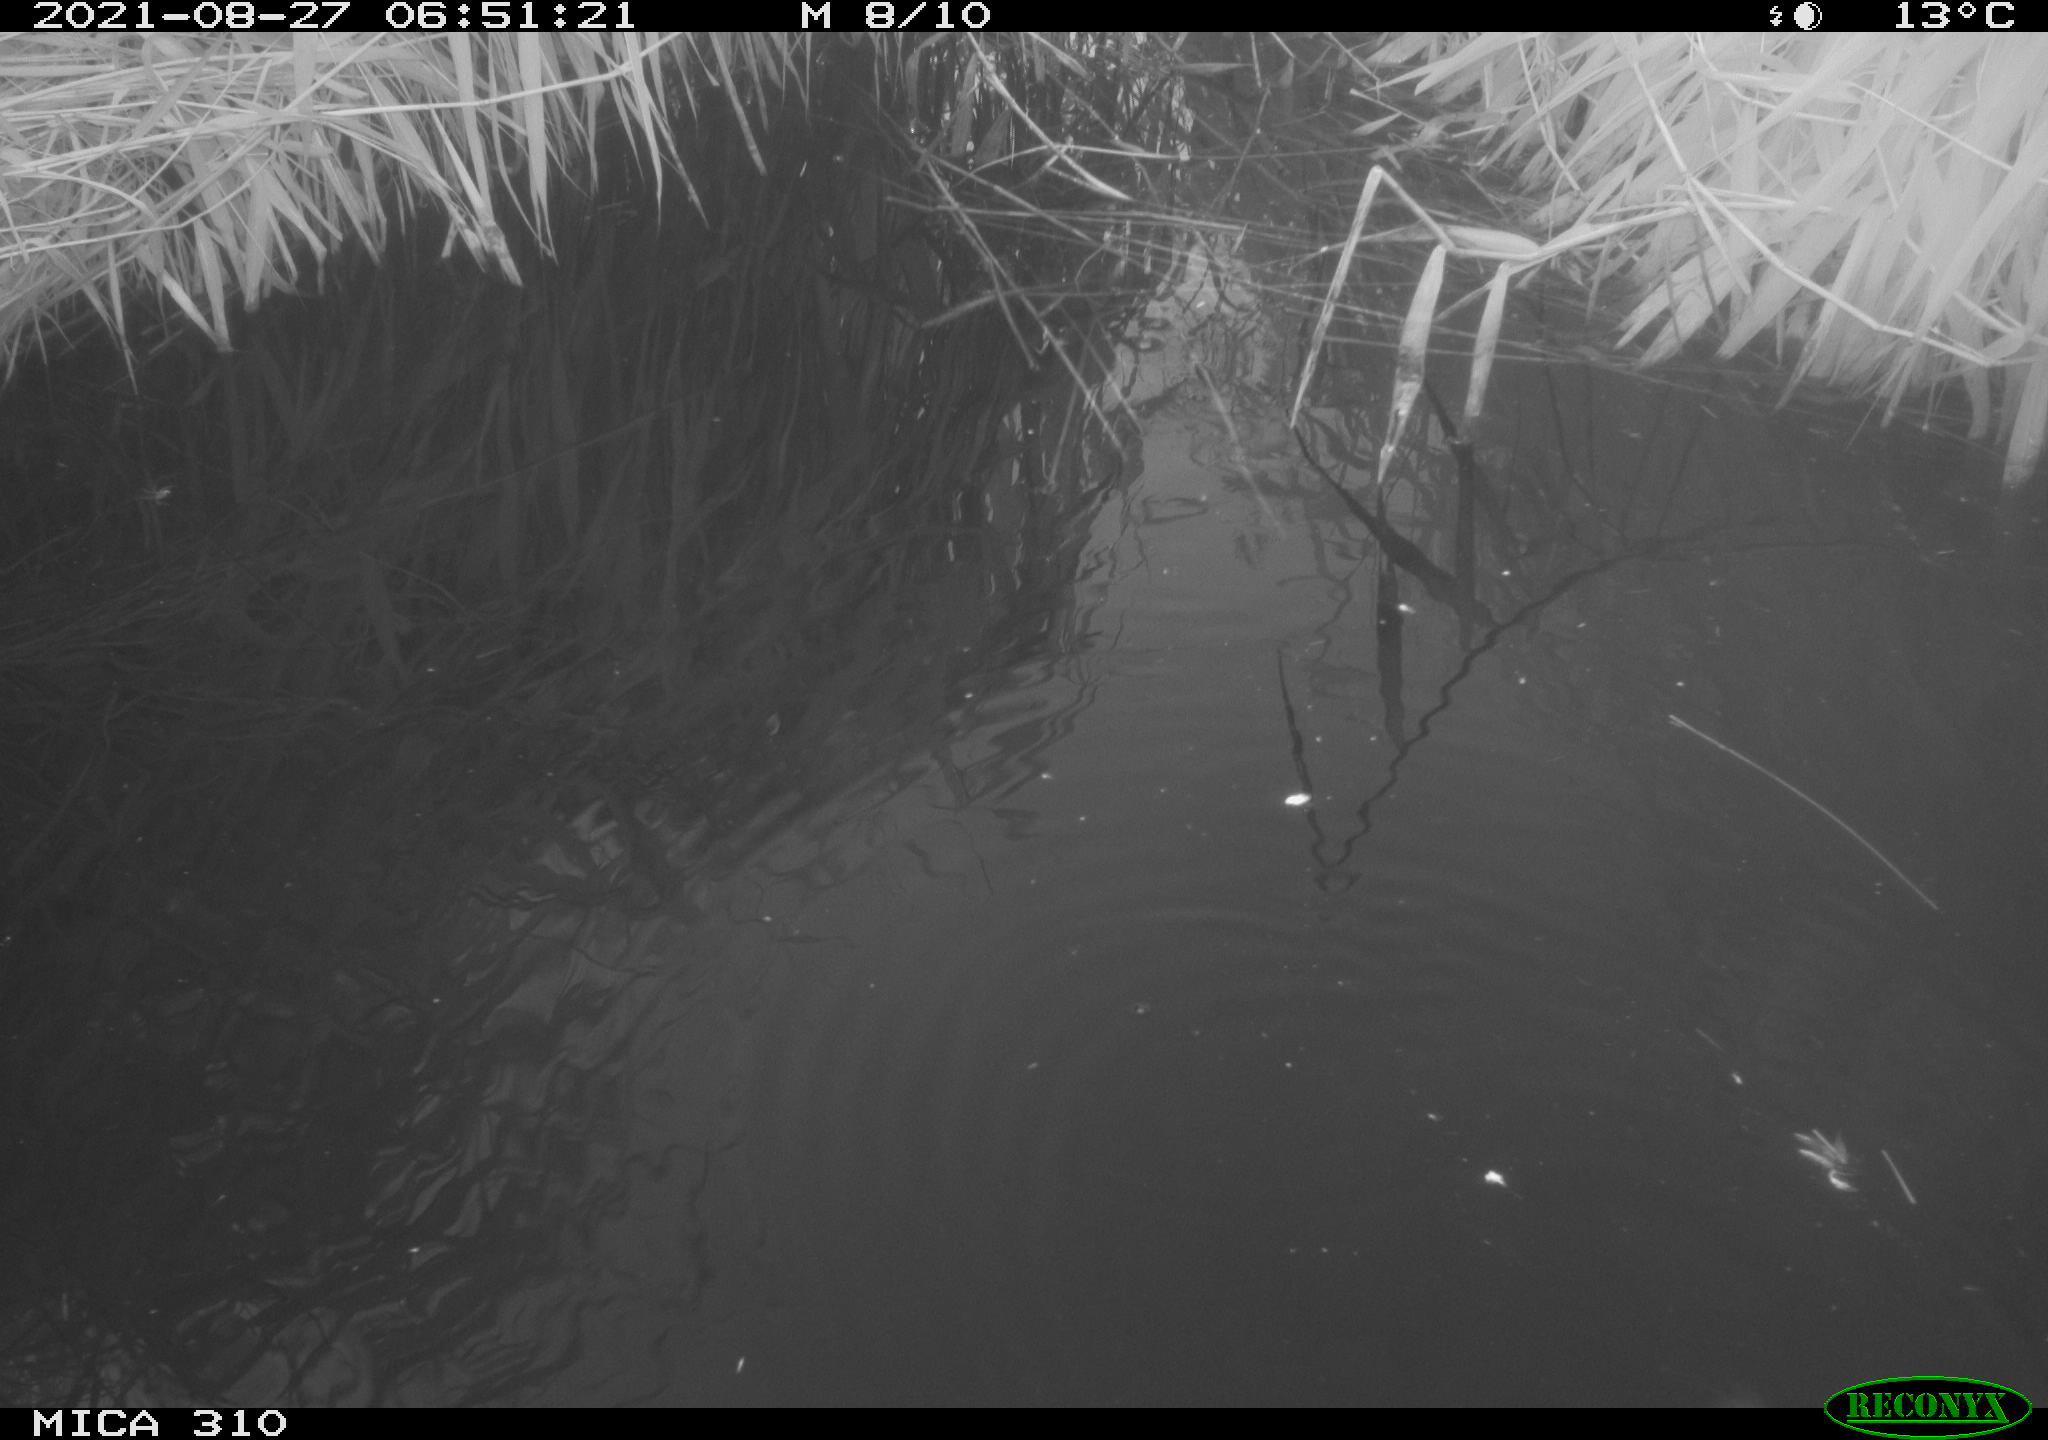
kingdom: Animalia
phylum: Chordata
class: Aves
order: Gruiformes
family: Rallidae
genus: Fulica
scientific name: Fulica atra
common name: Eurasian coot
